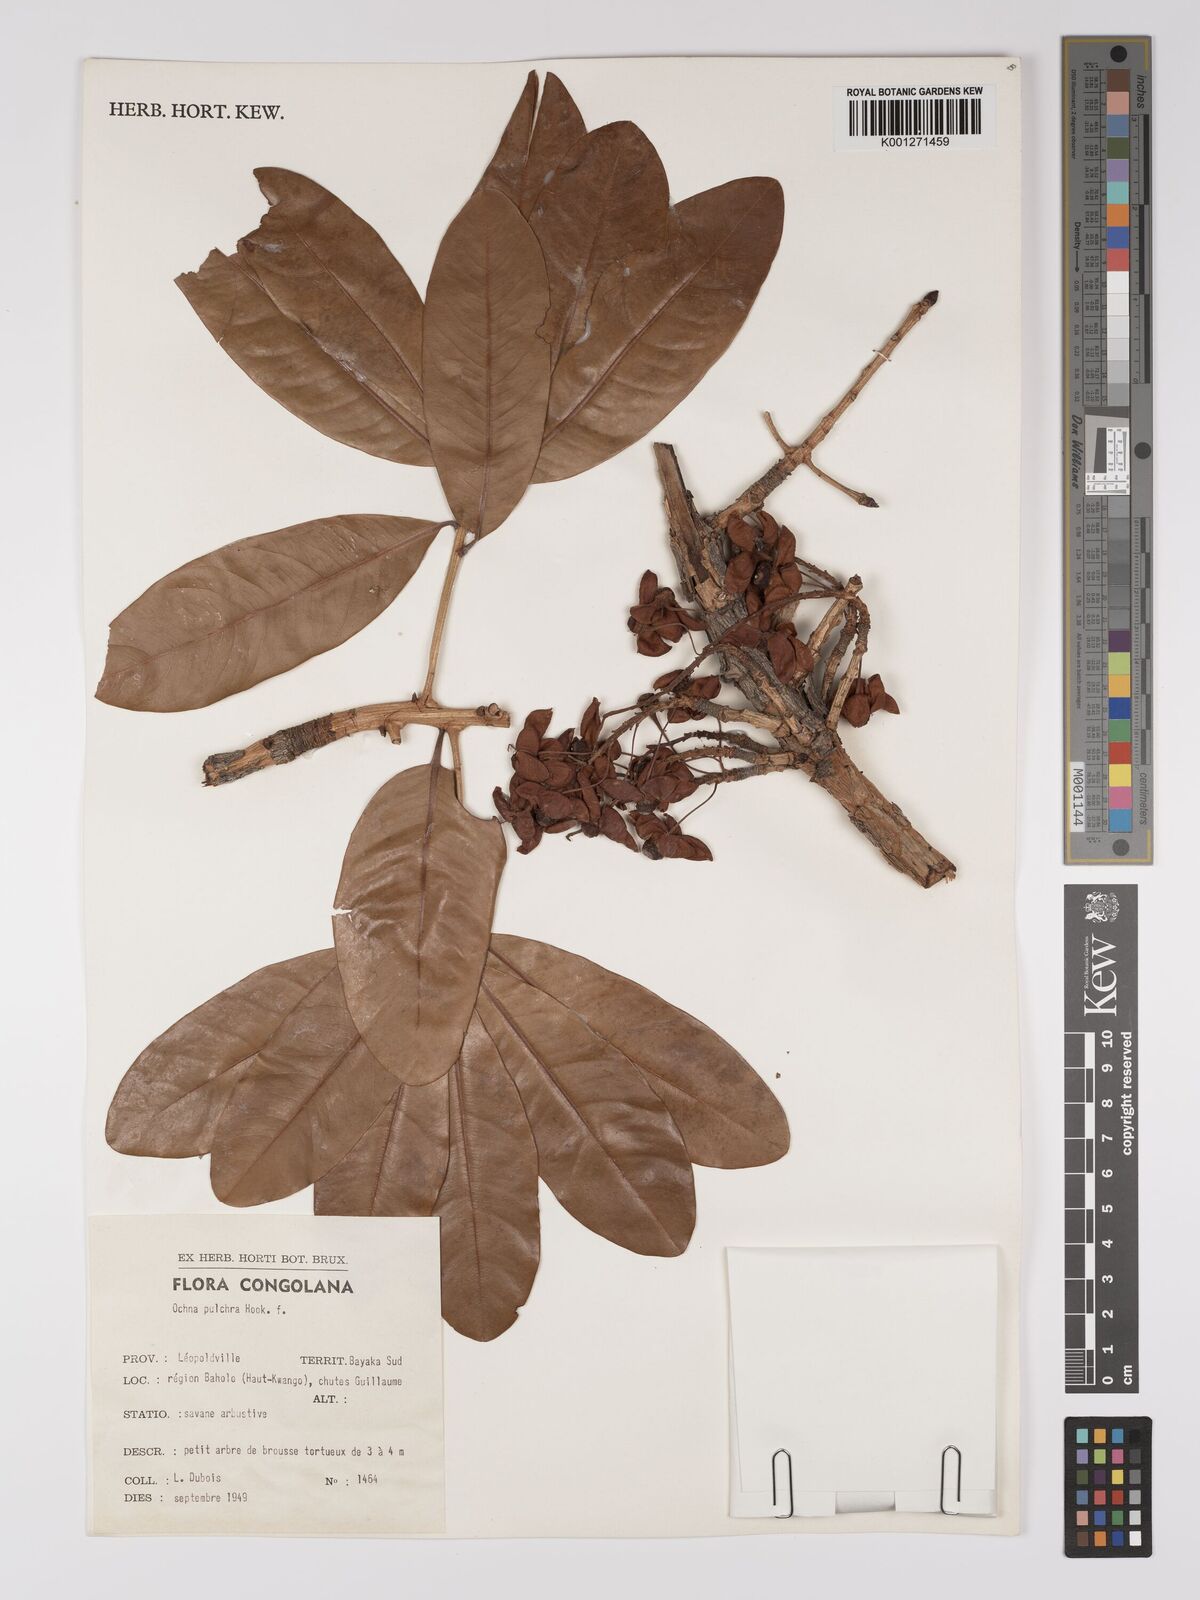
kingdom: Plantae
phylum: Tracheophyta
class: Magnoliopsida
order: Malpighiales
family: Ochnaceae
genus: Ochna
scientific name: Ochna pulchra
